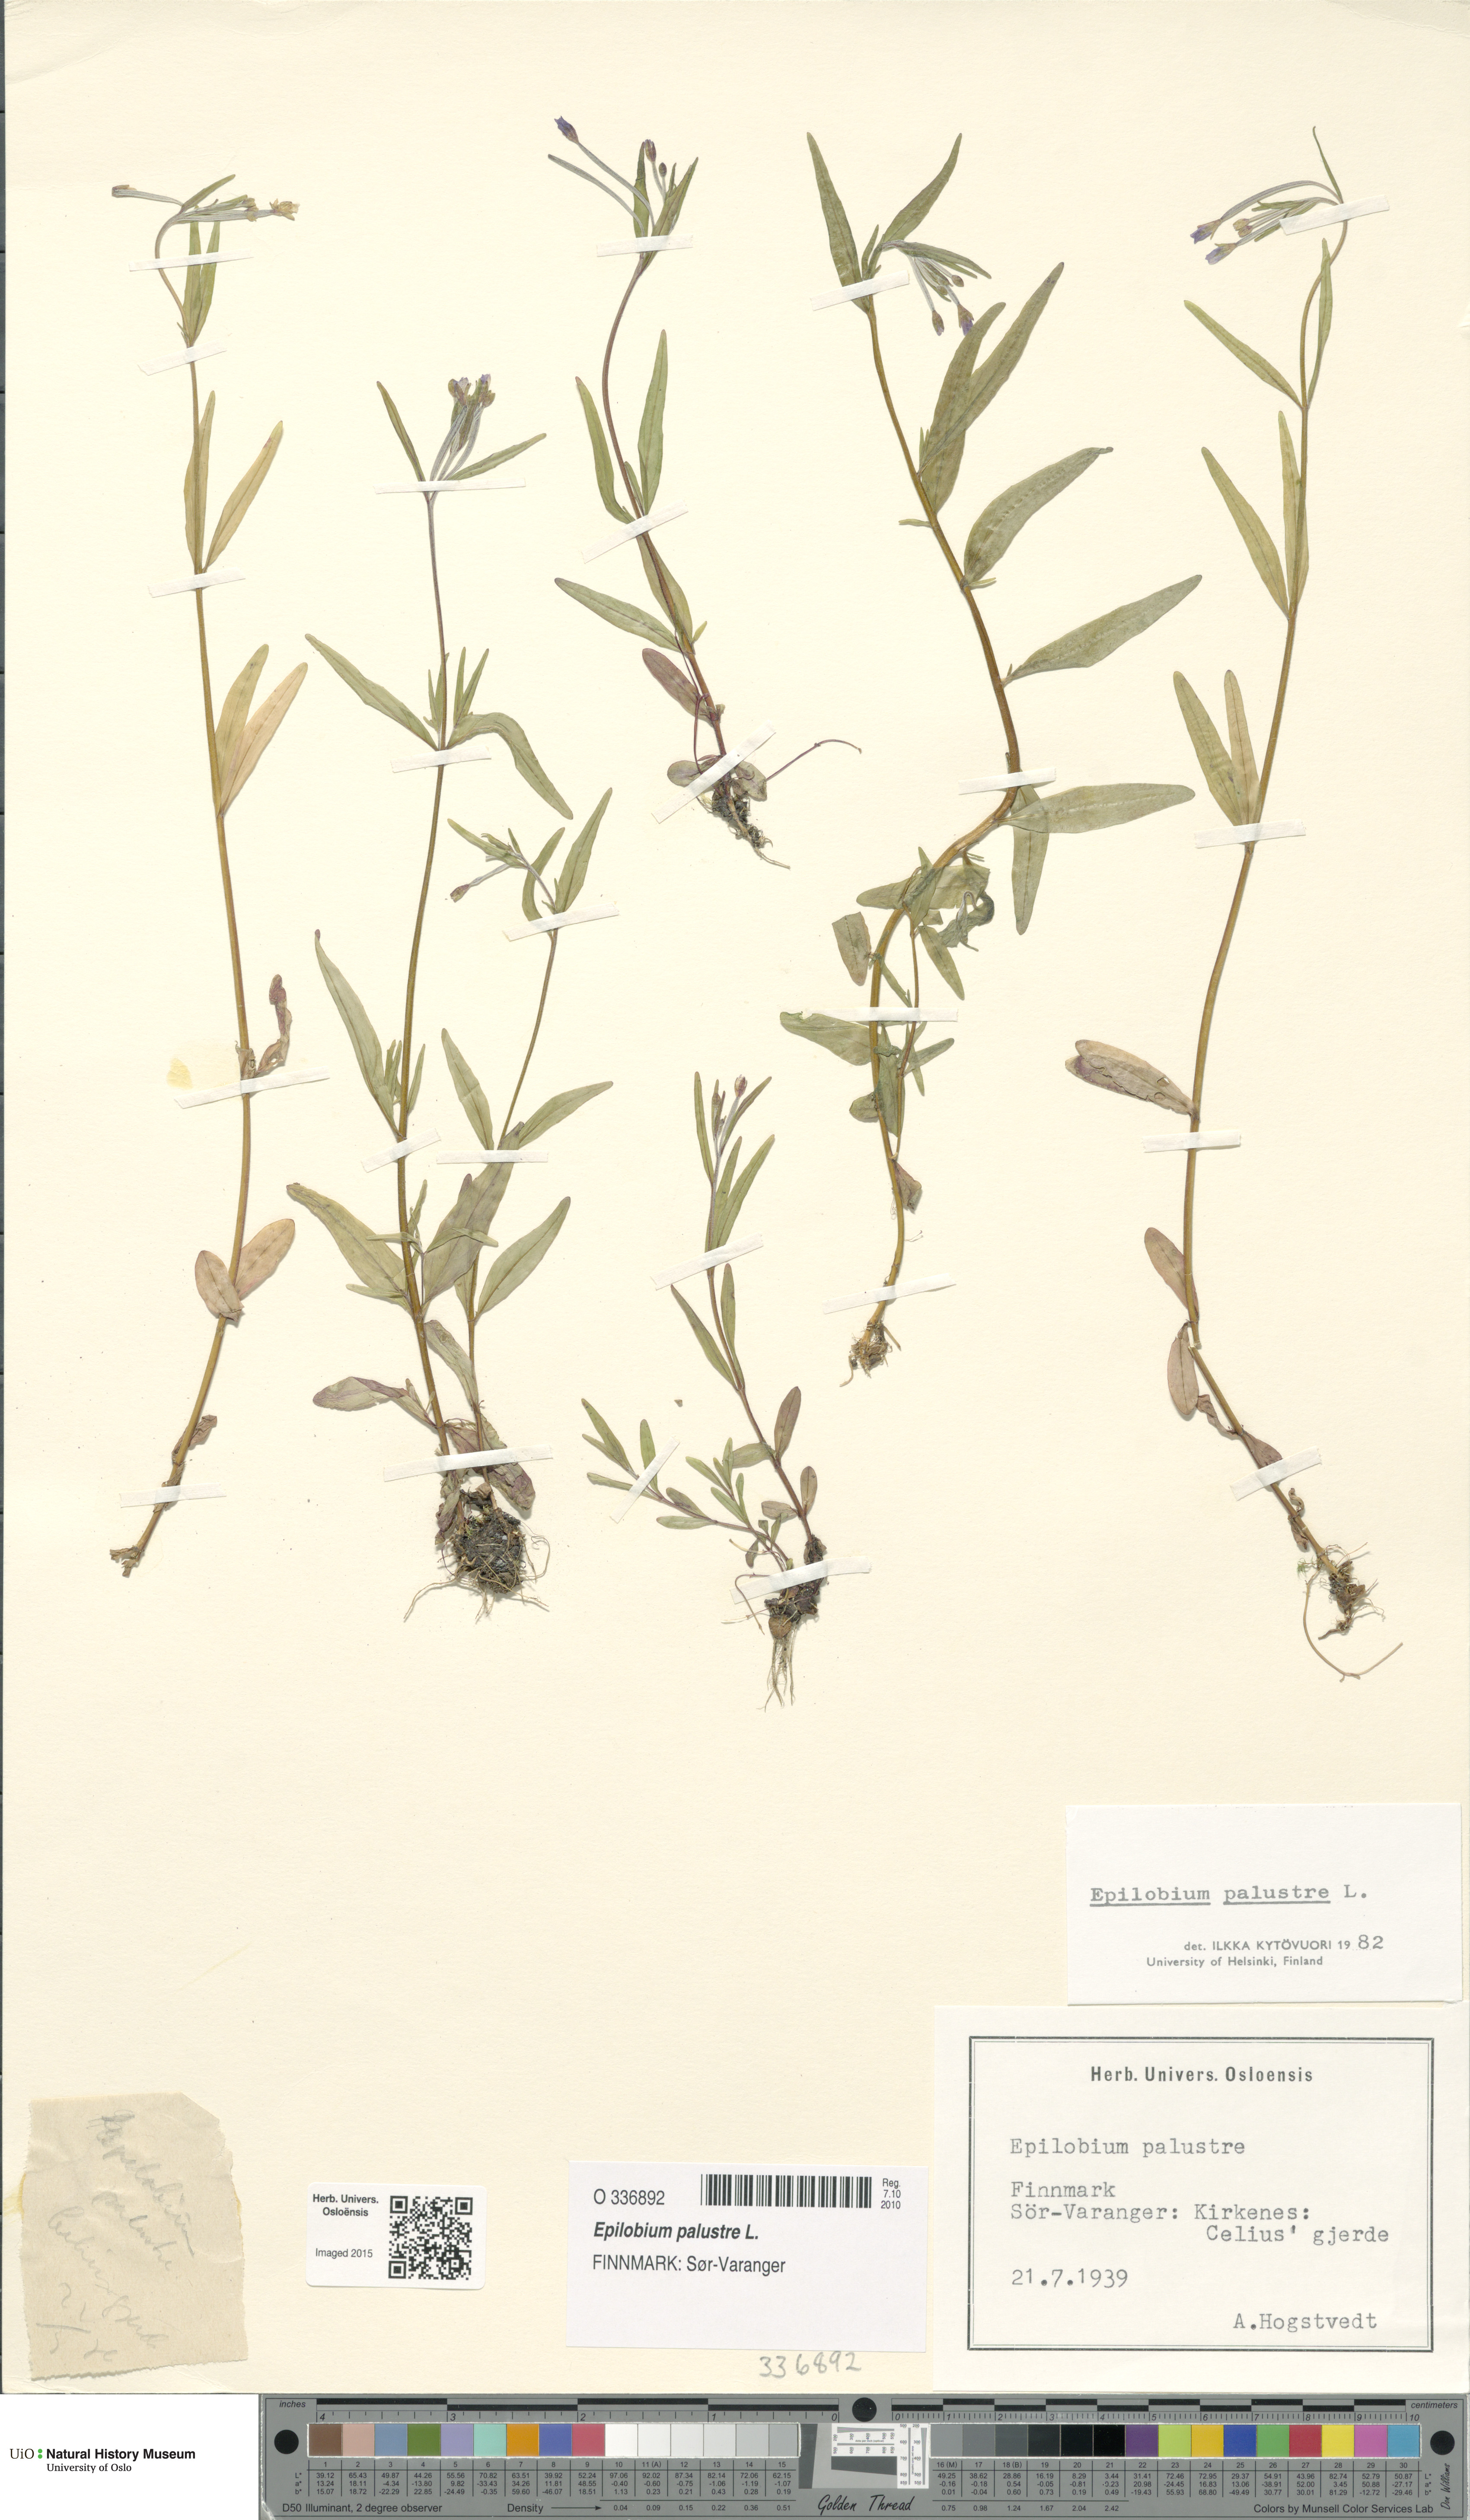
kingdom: Plantae
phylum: Tracheophyta
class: Magnoliopsida
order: Myrtales
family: Onagraceae
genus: Epilobium
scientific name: Epilobium palustre
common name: Marsh willowherb
